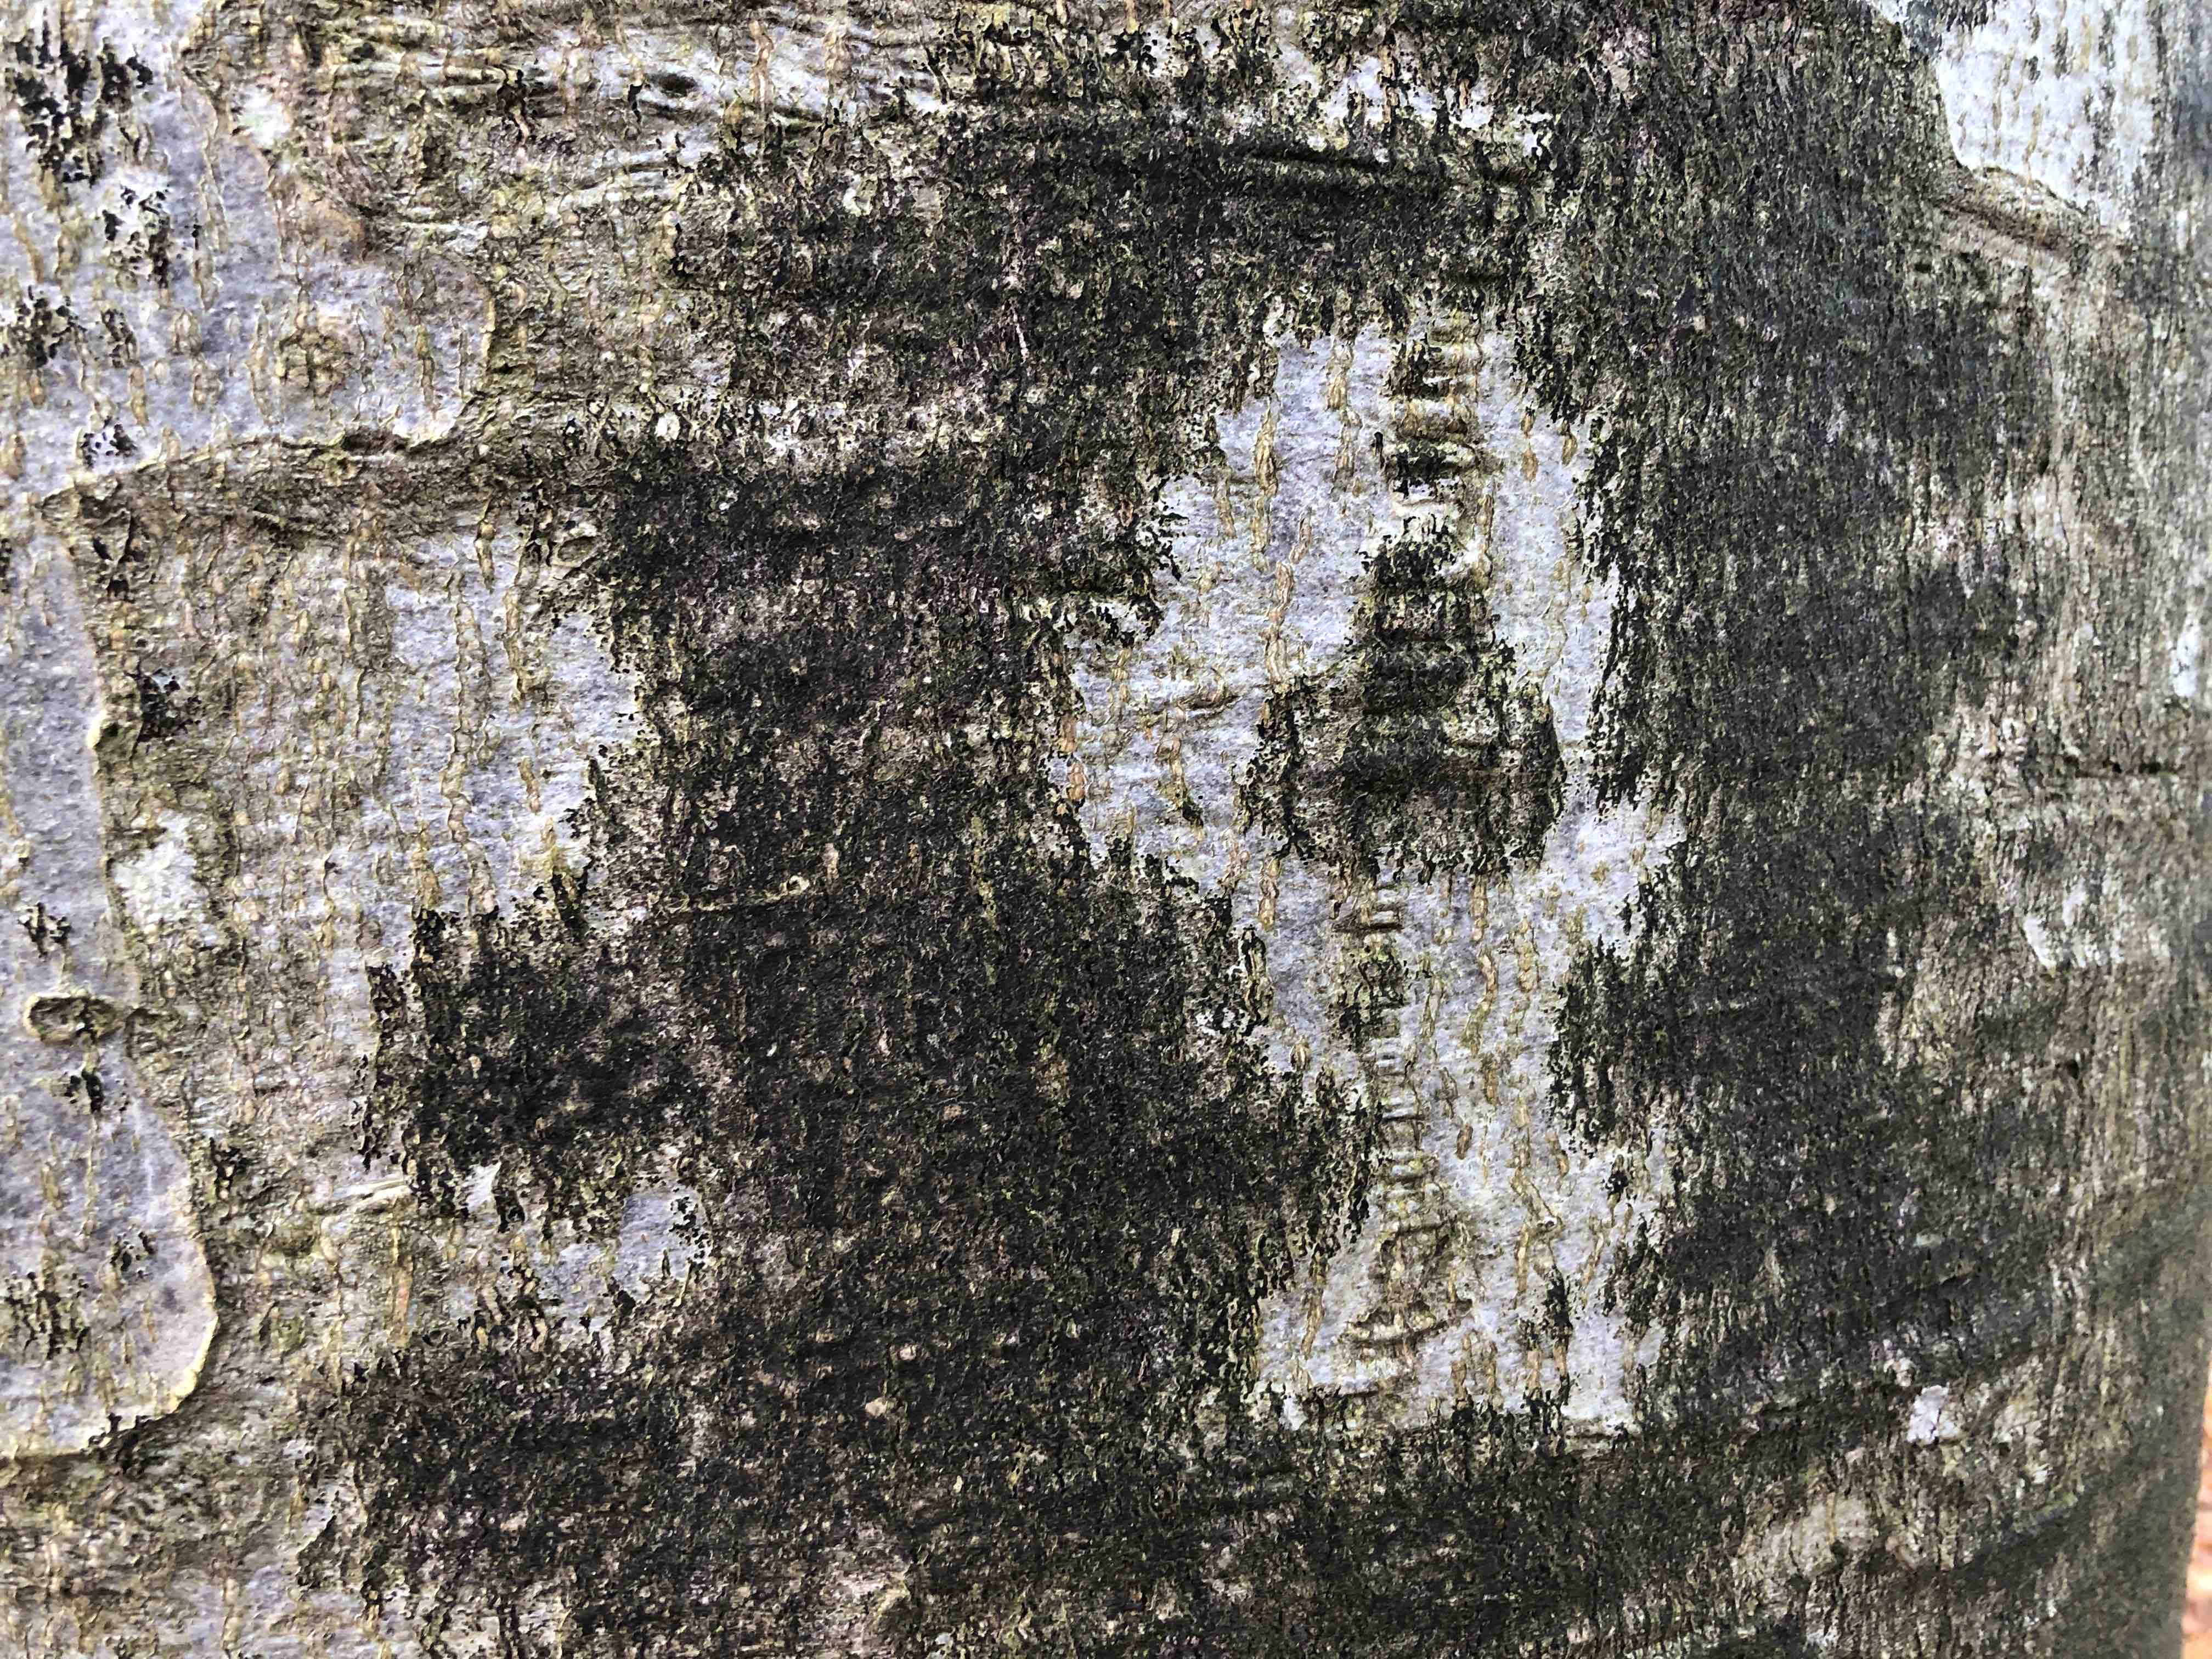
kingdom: Fungi
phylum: Ascomycota
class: Leotiomycetes
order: Rhytismatales
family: Ascodichaenaceae
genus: Ascodichaena
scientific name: Ascodichaena rugosa
